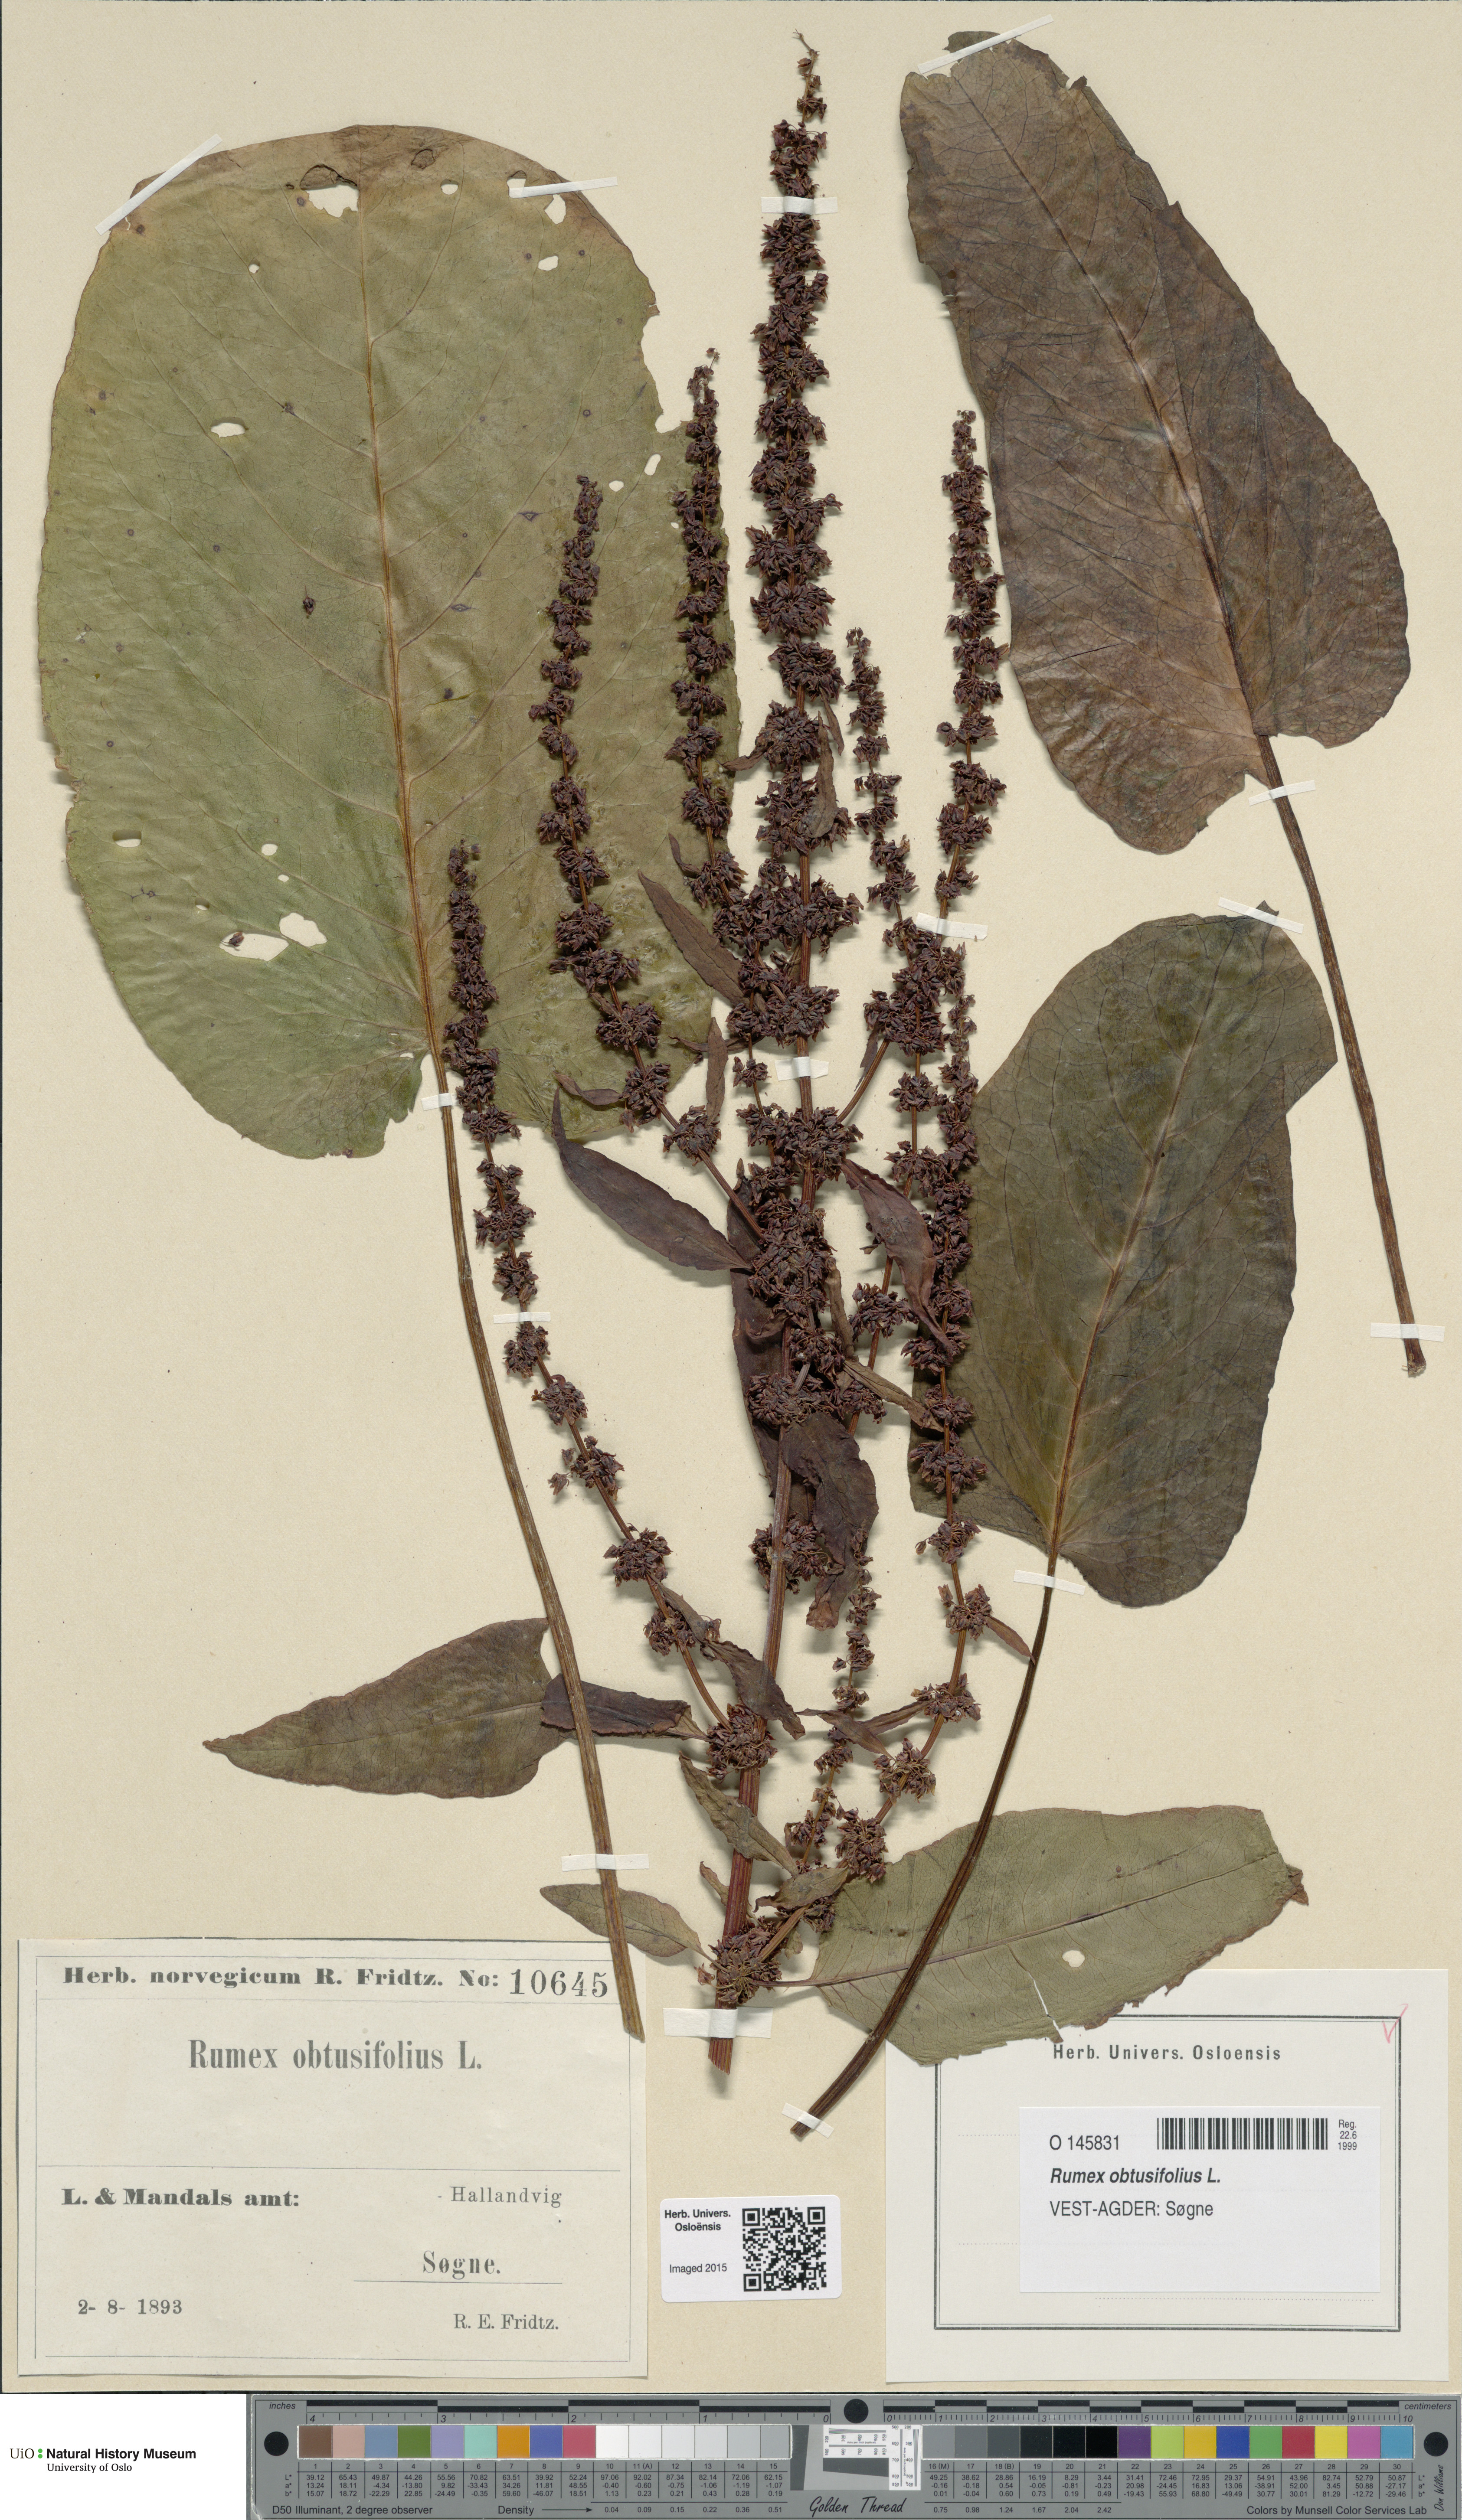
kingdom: Plantae
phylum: Tracheophyta
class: Magnoliopsida
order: Caryophyllales
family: Polygonaceae
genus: Rumex
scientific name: Rumex obtusifolius
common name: Bitter dock
